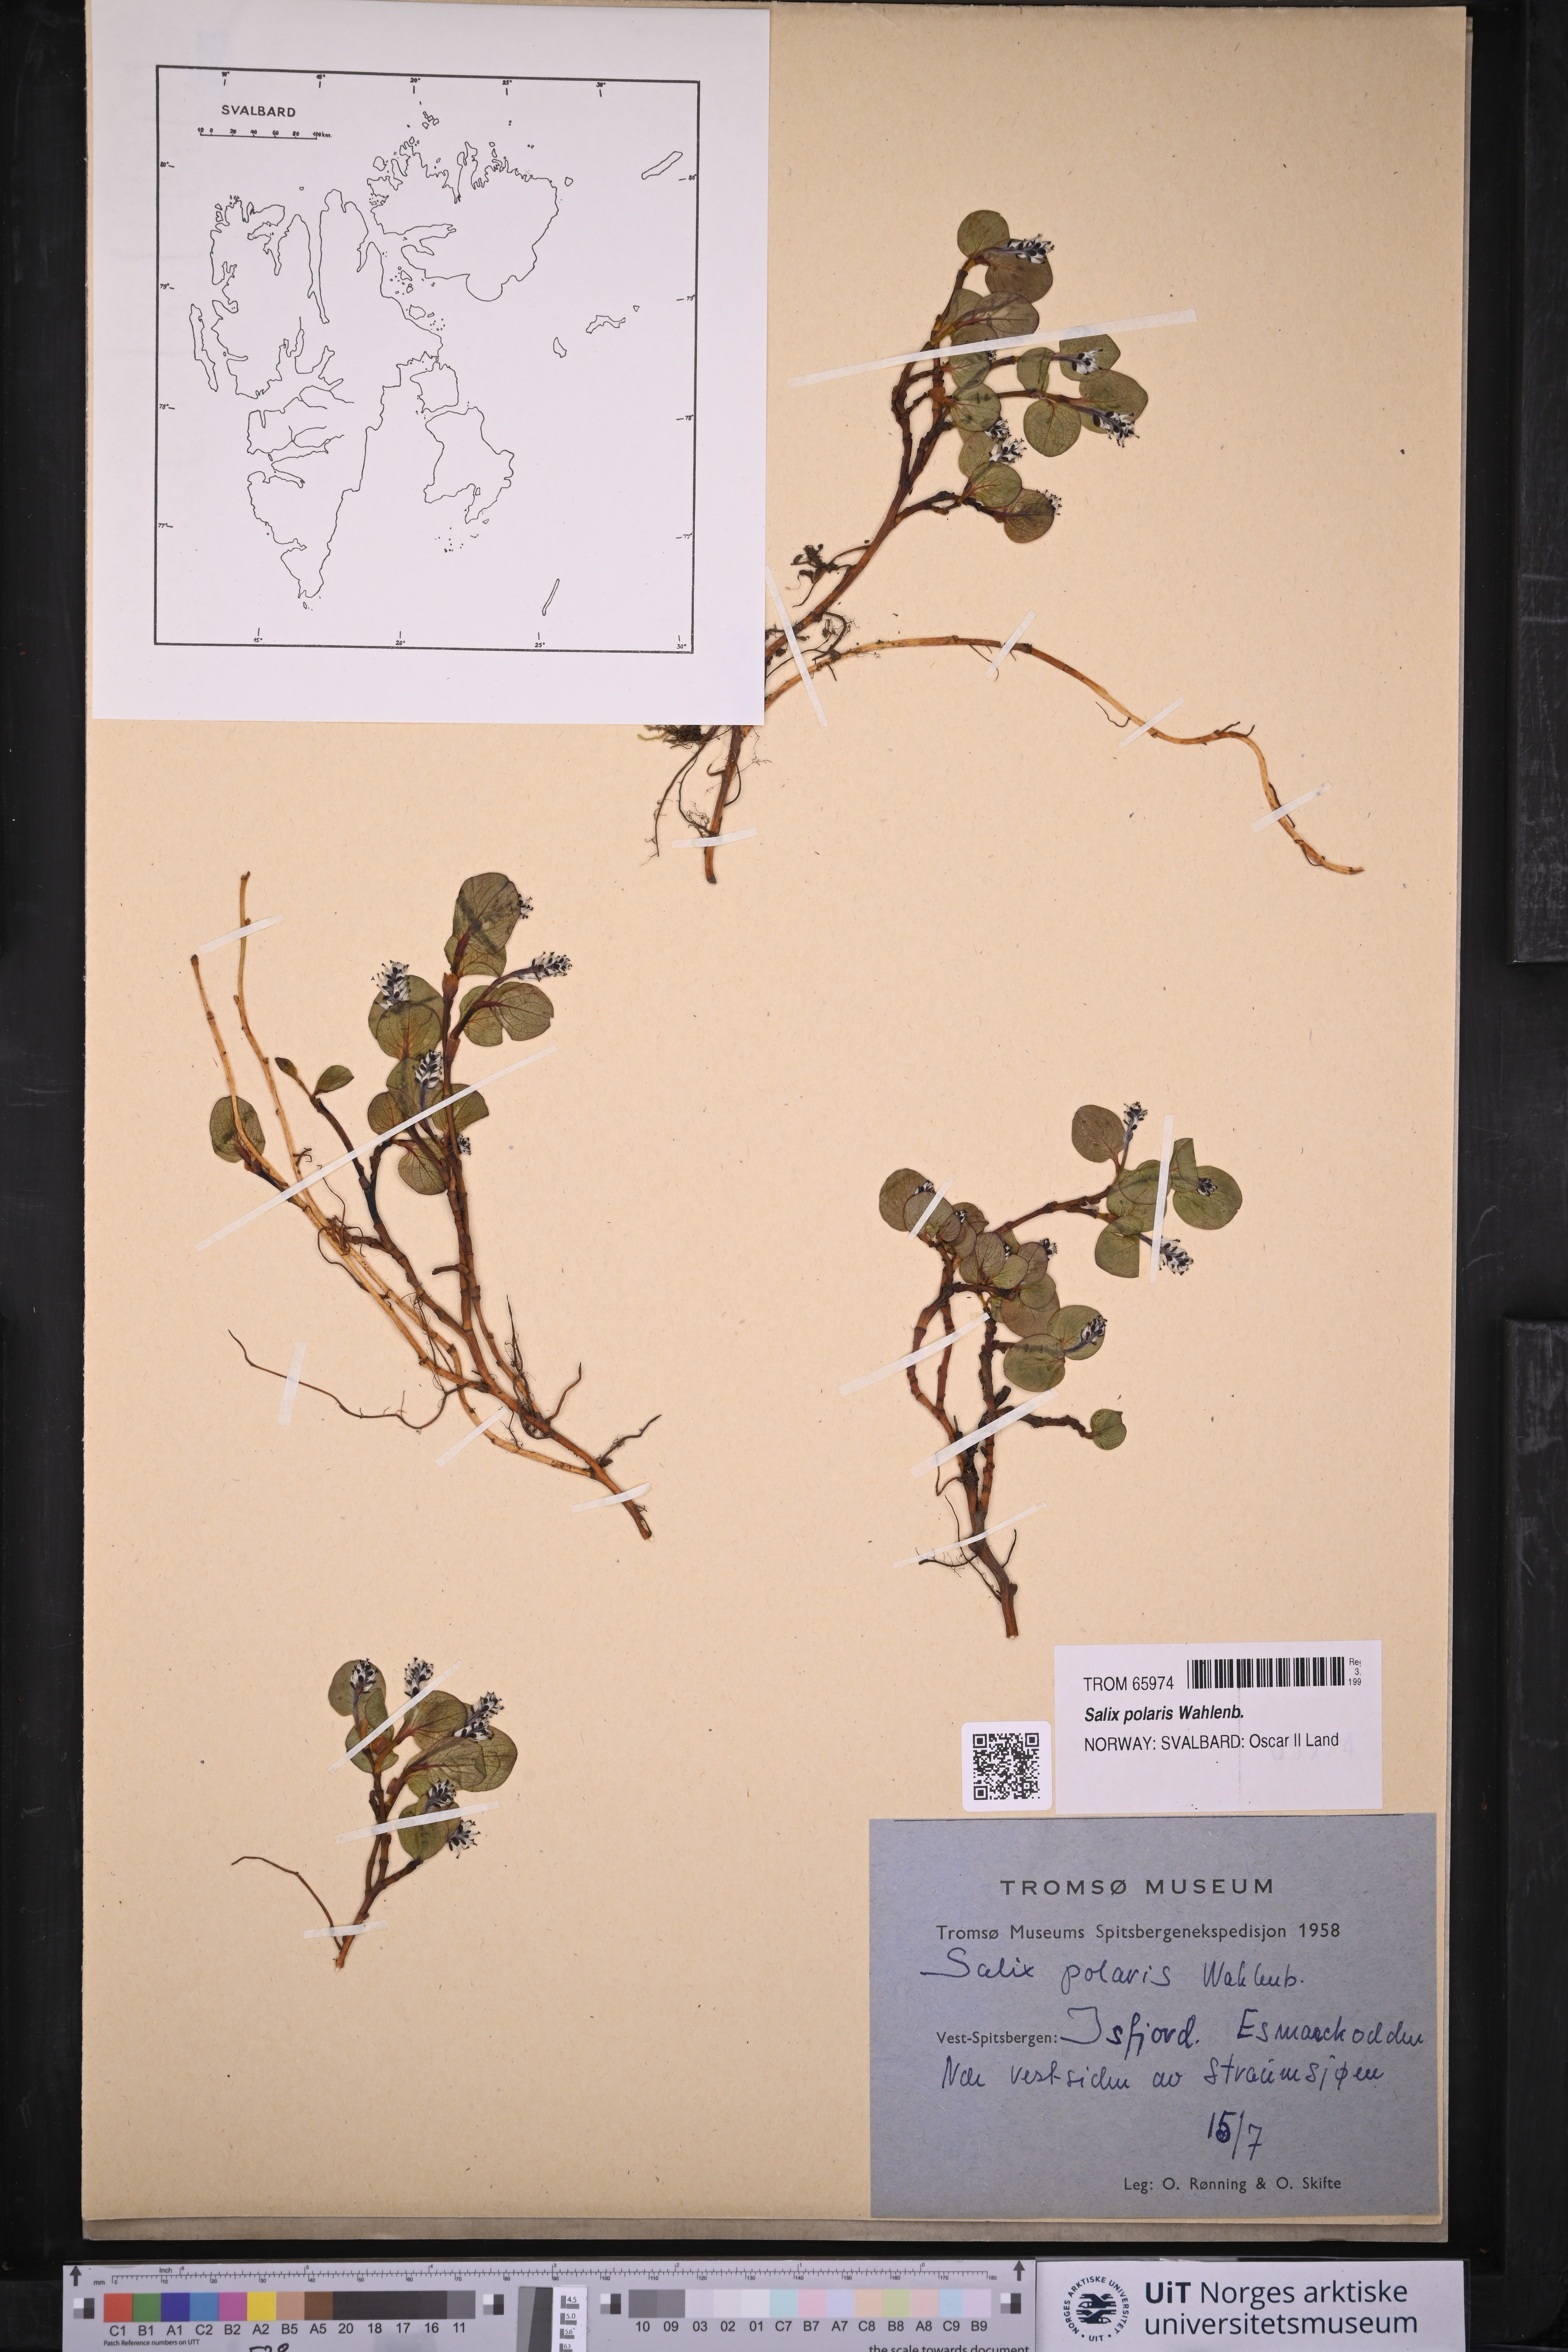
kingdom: Plantae
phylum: Tracheophyta
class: Magnoliopsida
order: Malpighiales
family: Salicaceae
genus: Salix
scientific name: Salix polaris
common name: Polar willow
